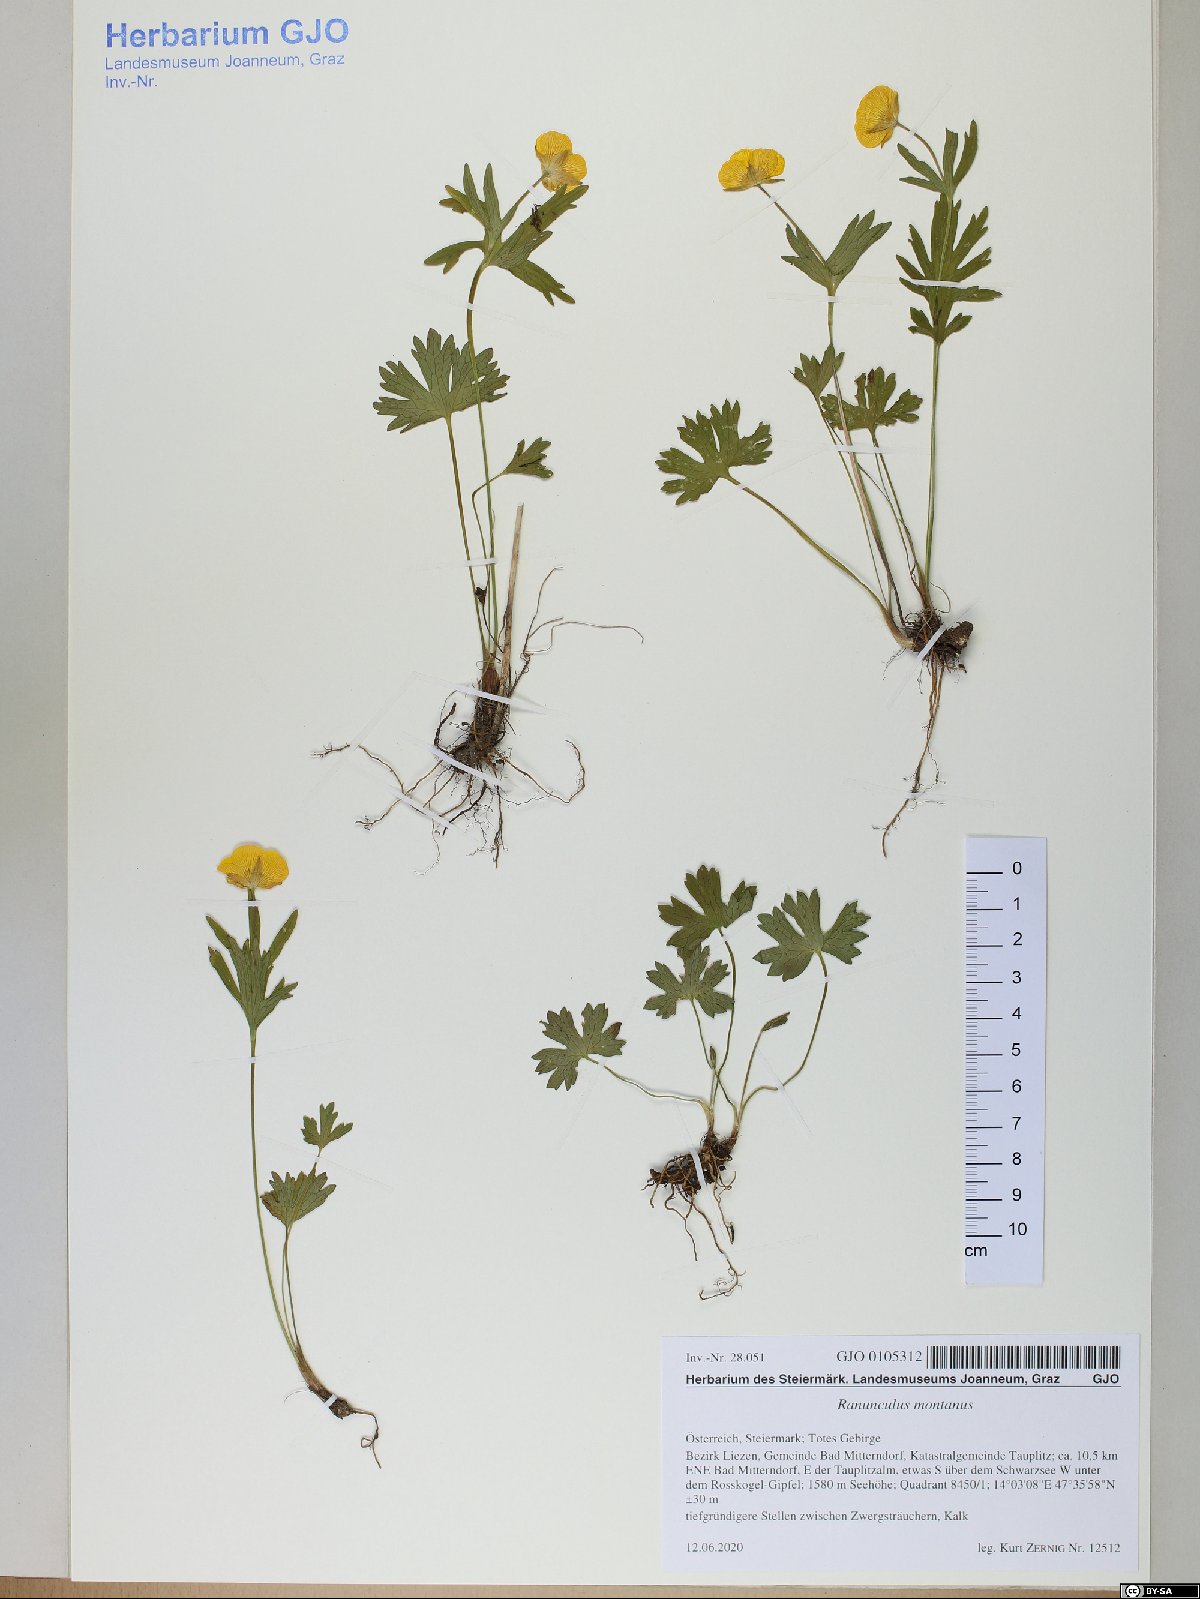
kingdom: Plantae
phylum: Tracheophyta
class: Magnoliopsida
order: Ranunculales
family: Ranunculaceae
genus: Ranunculus
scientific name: Ranunculus montanus
